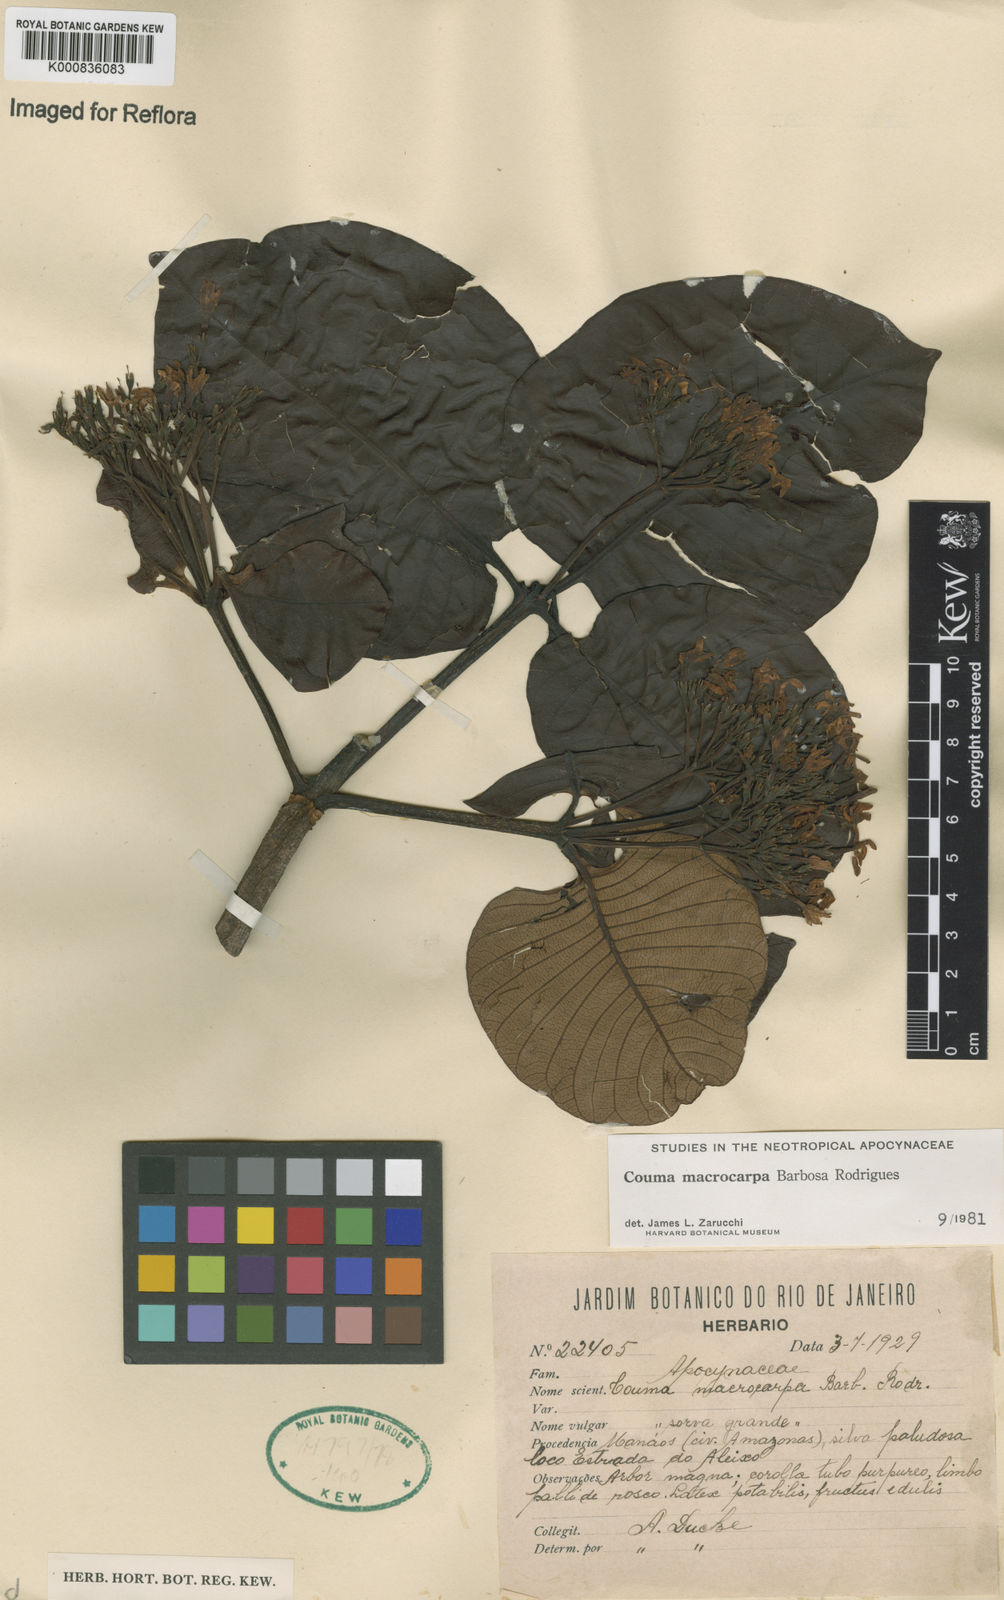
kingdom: Plantae
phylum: Tracheophyta
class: Magnoliopsida
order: Gentianales
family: Apocynaceae
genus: Couma
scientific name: Couma macrocarpa
